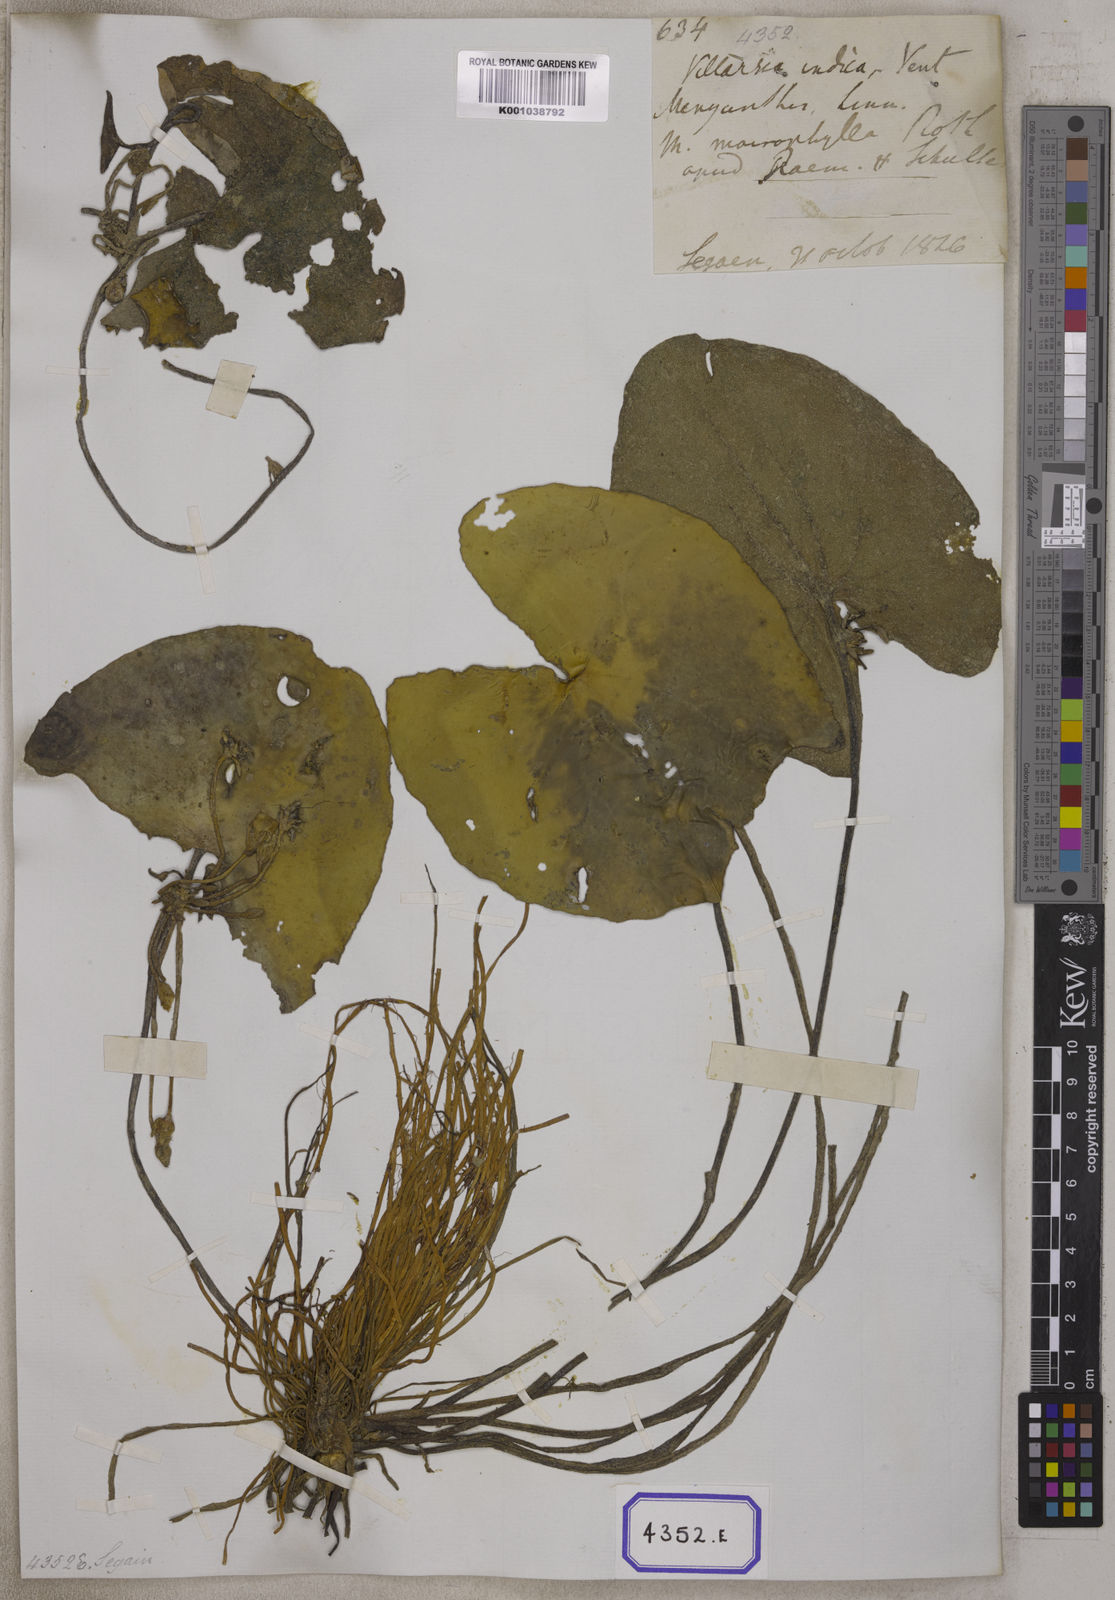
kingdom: Plantae
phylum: Tracheophyta
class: Magnoliopsida
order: Asterales
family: Menyanthaceae
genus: Villarsia
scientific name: Villarsia
